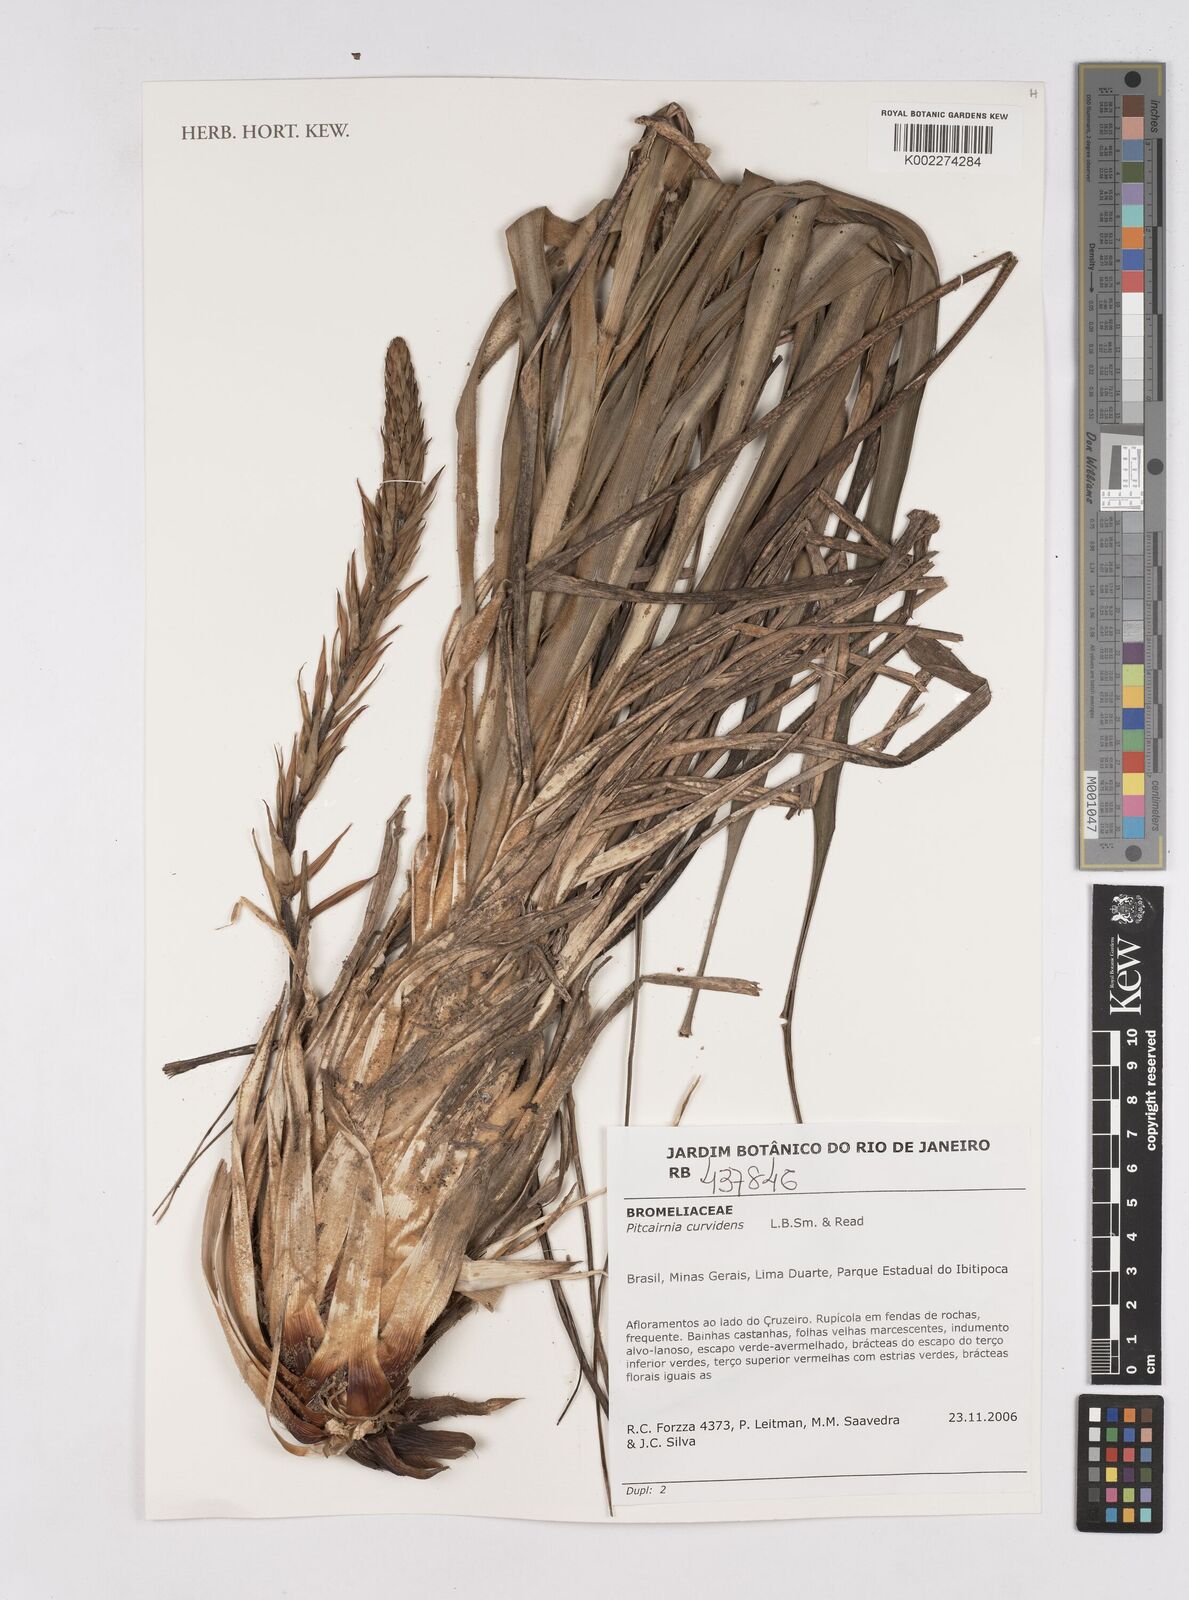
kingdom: Plantae
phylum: Tracheophyta
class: Liliopsida
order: Poales
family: Bromeliaceae
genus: Pitcairnia
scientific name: Pitcairnia curvidens
